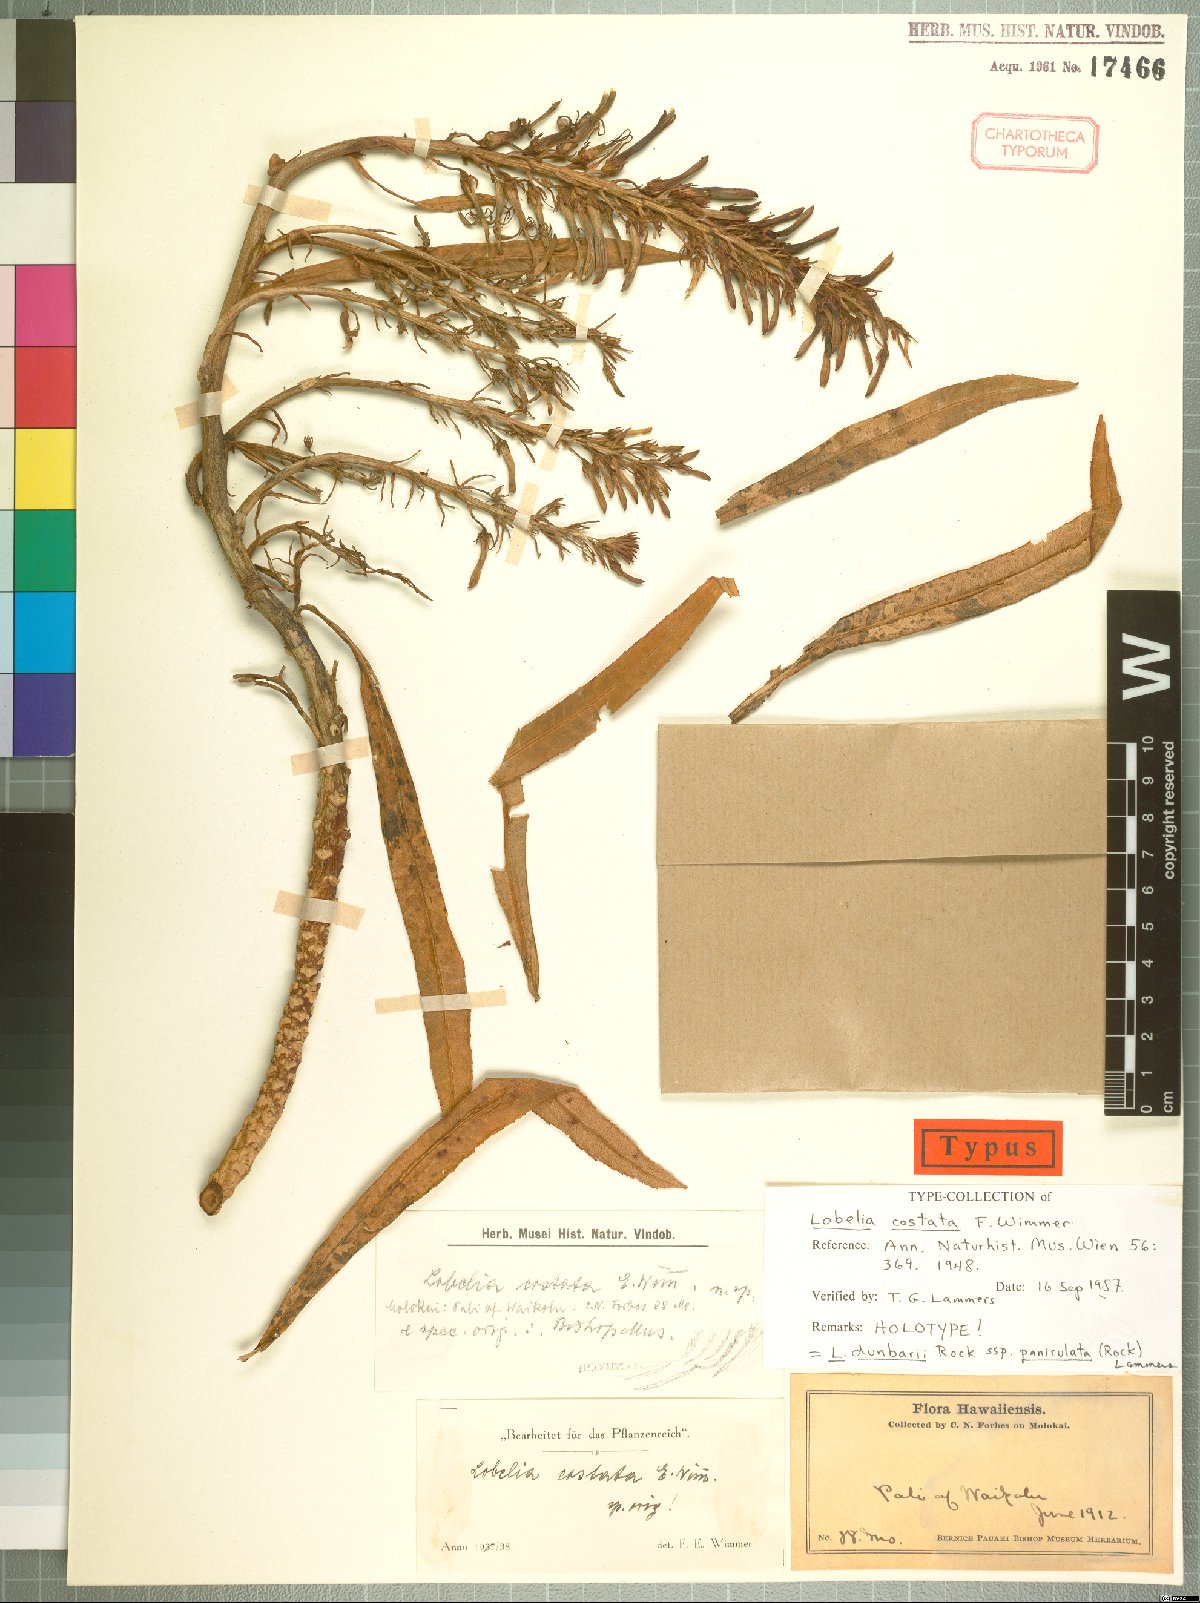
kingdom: Plantae
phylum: Tracheophyta
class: Magnoliopsida
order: Asterales
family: Campanulaceae
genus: Lobelia
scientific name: Lobelia dunbariae
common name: Waihanau lobelia
